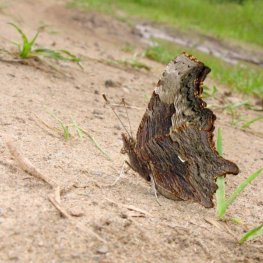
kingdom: Animalia
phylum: Arthropoda
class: Insecta
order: Lepidoptera
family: Nymphalidae
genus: Polygonia
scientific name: Polygonia progne
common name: Gray Comma
